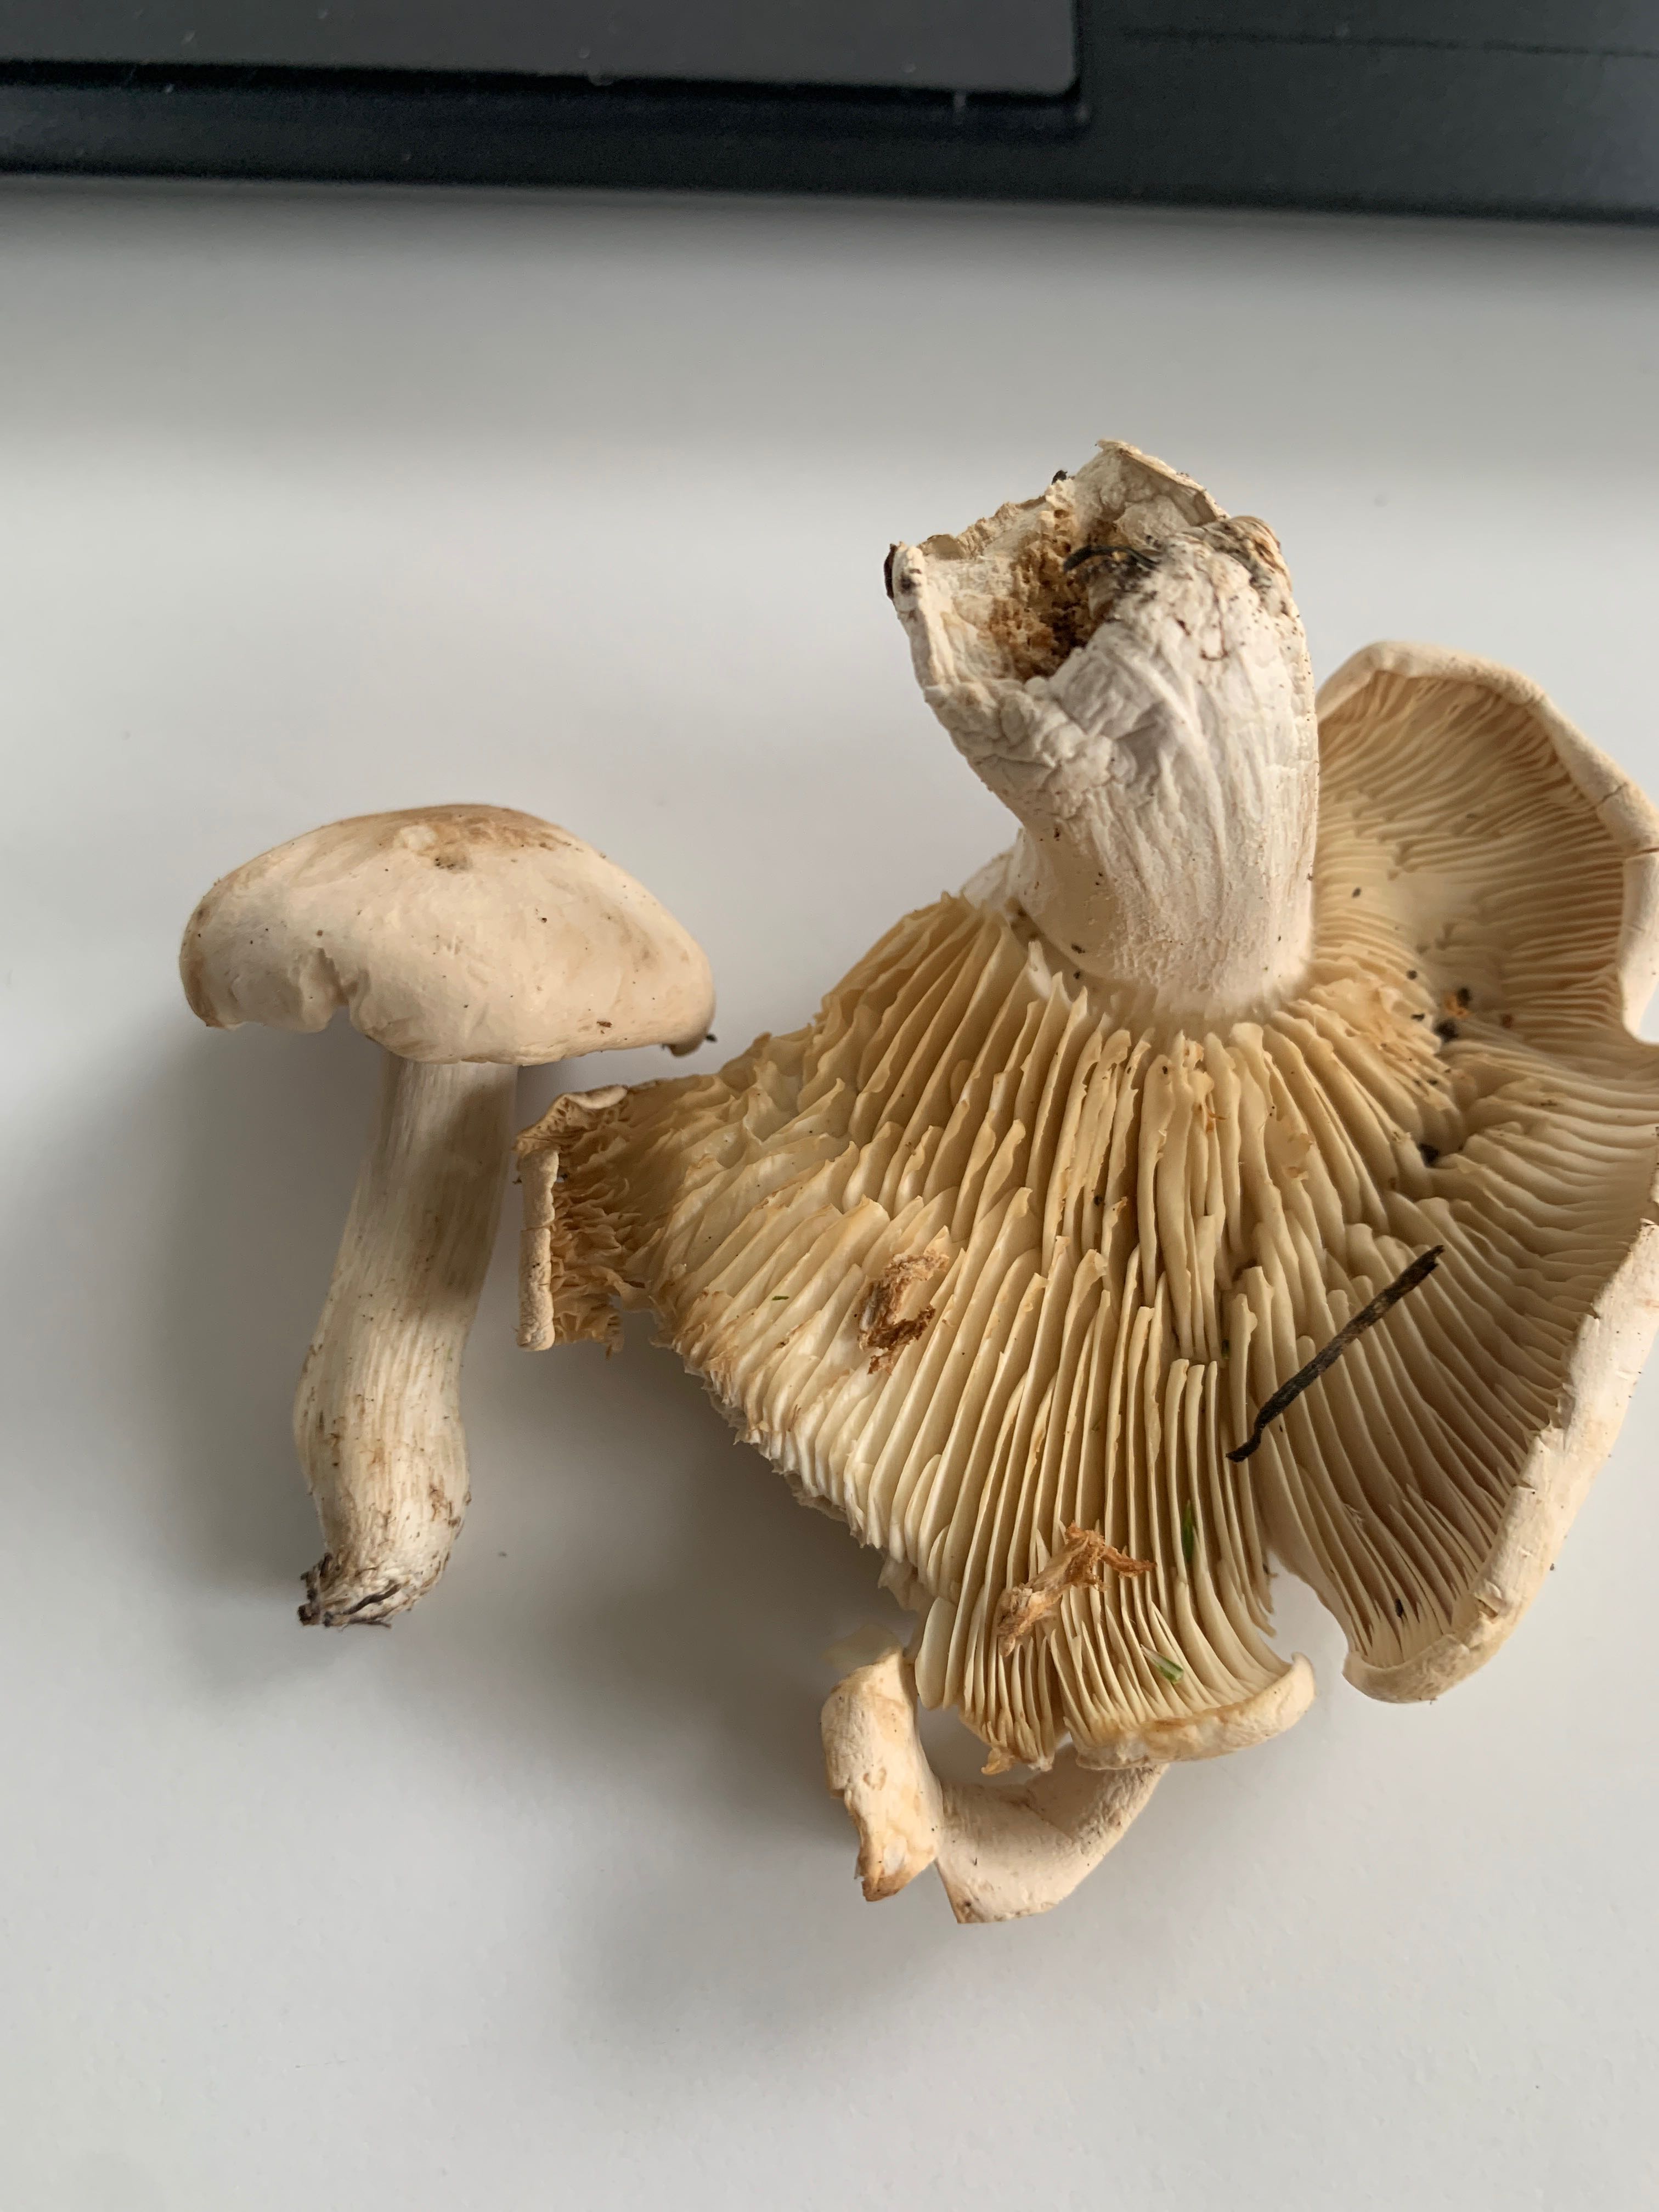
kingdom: Fungi
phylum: Basidiomycota
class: Agaricomycetes
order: Agaricales
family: Entolomataceae
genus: Entoloma
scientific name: Entoloma
